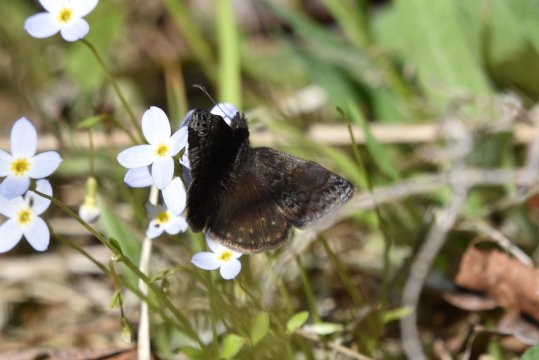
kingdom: Animalia
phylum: Arthropoda
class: Insecta
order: Lepidoptera
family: Hesperiidae
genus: Erynnis
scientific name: Erynnis icelus
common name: Dreamy Duskywing
